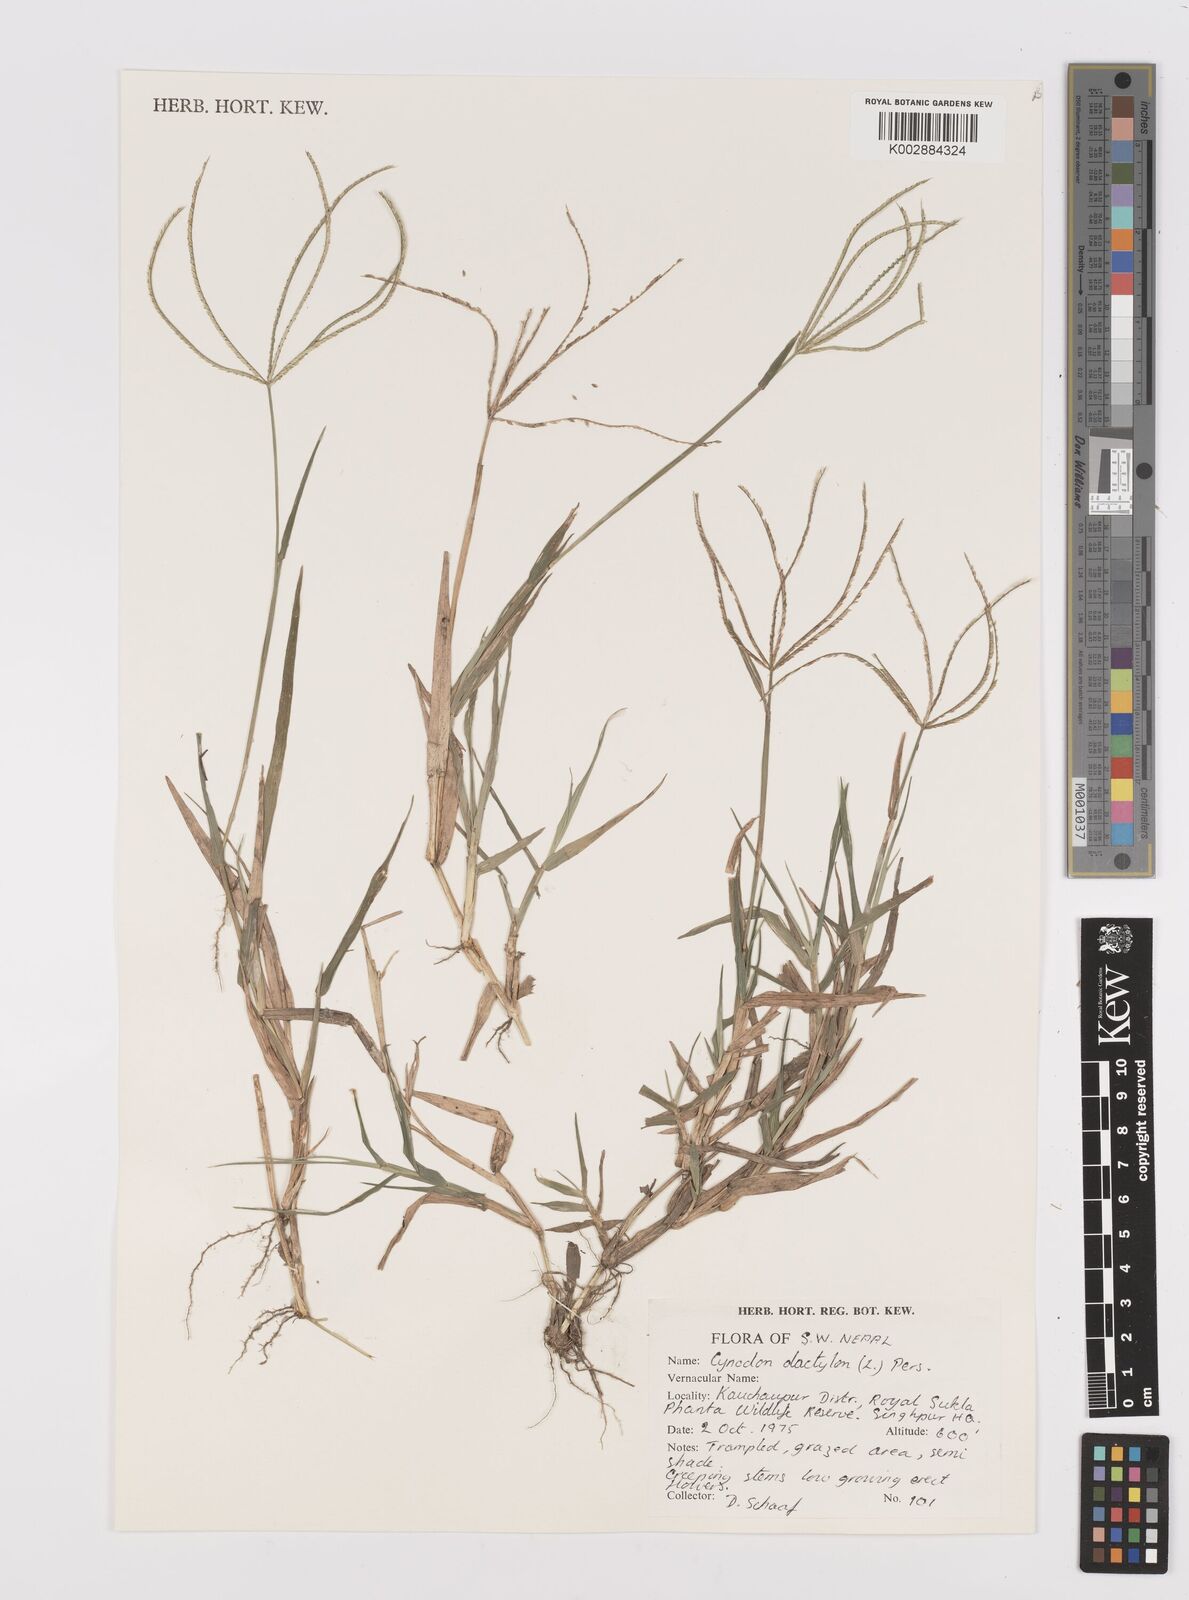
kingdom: Plantae
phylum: Tracheophyta
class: Liliopsida
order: Poales
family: Poaceae
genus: Cynodon
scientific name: Cynodon dactylon
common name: Bermuda grass
